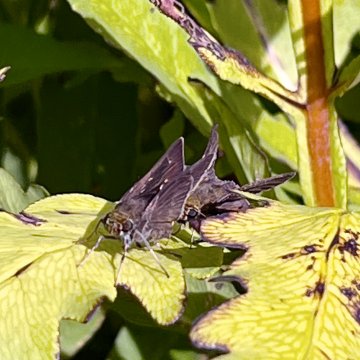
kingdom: Animalia
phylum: Arthropoda
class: Insecta
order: Lepidoptera
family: Hesperiidae
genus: Euphyes
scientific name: Euphyes vestris
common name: Dun Skipper
